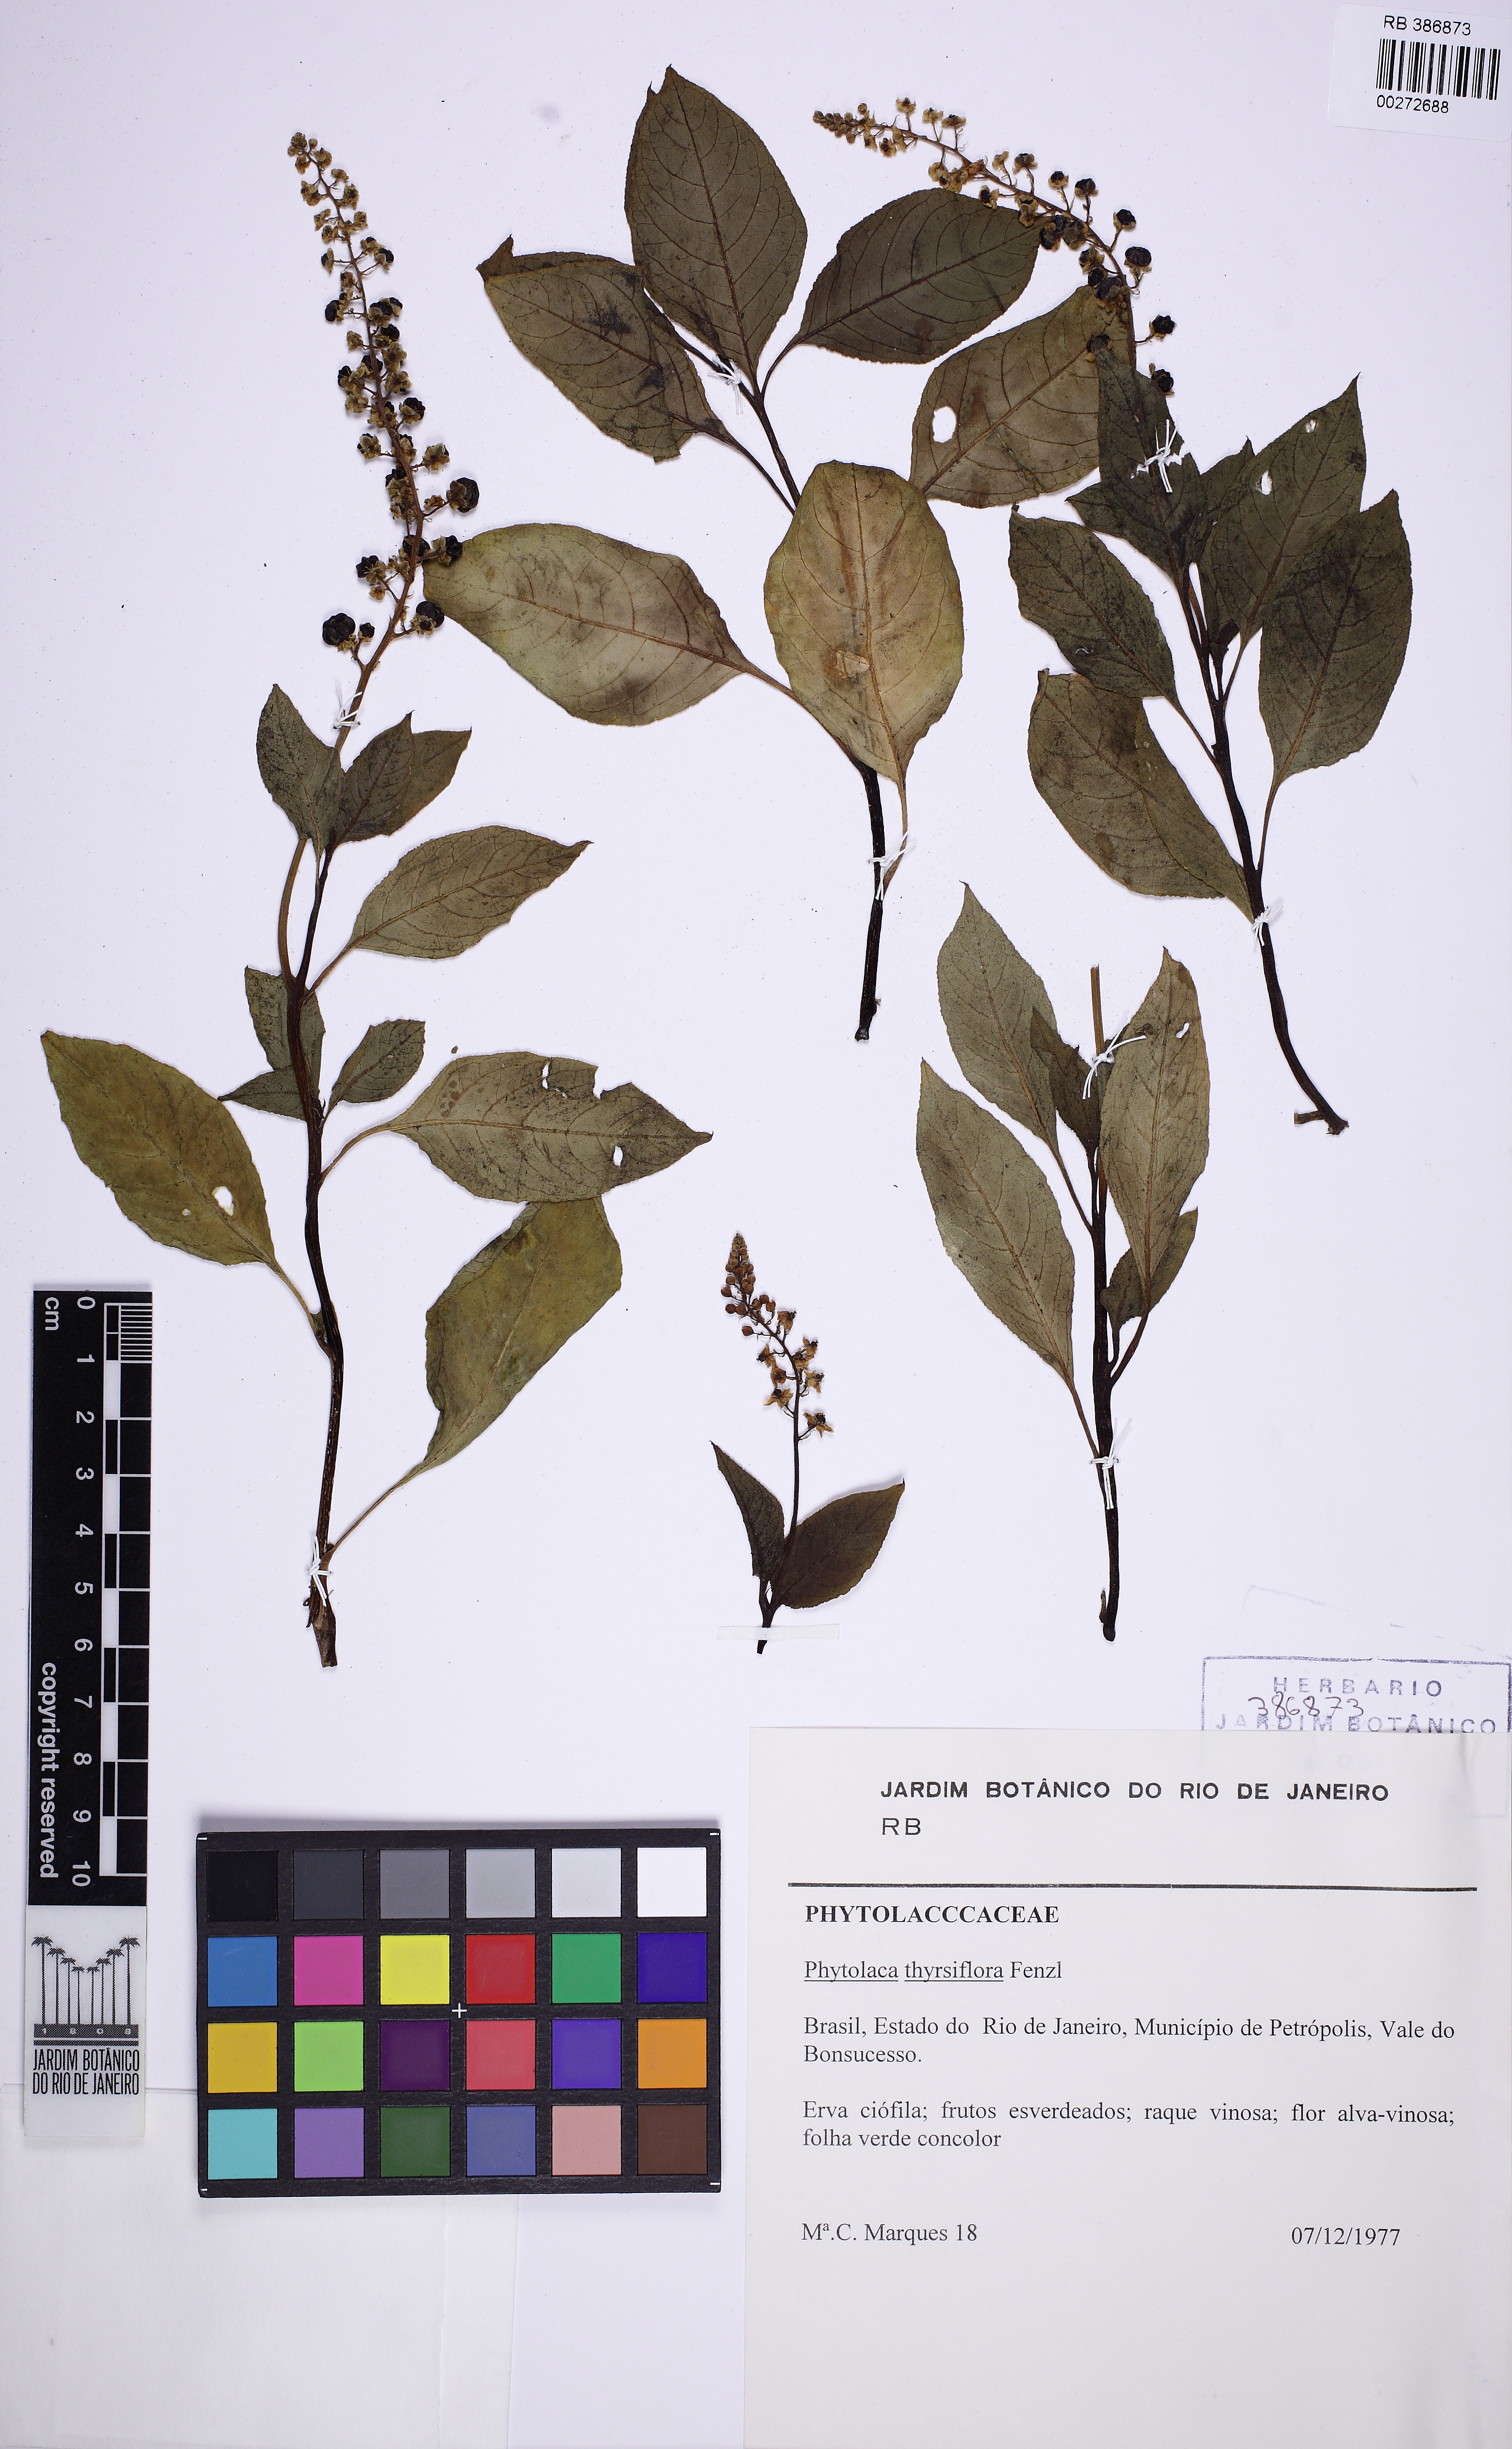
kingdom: Plantae
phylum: Tracheophyta
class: Magnoliopsida
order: Caryophyllales
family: Phytolaccaceae
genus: Phytolacca
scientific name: Phytolacca thyrsiflora
